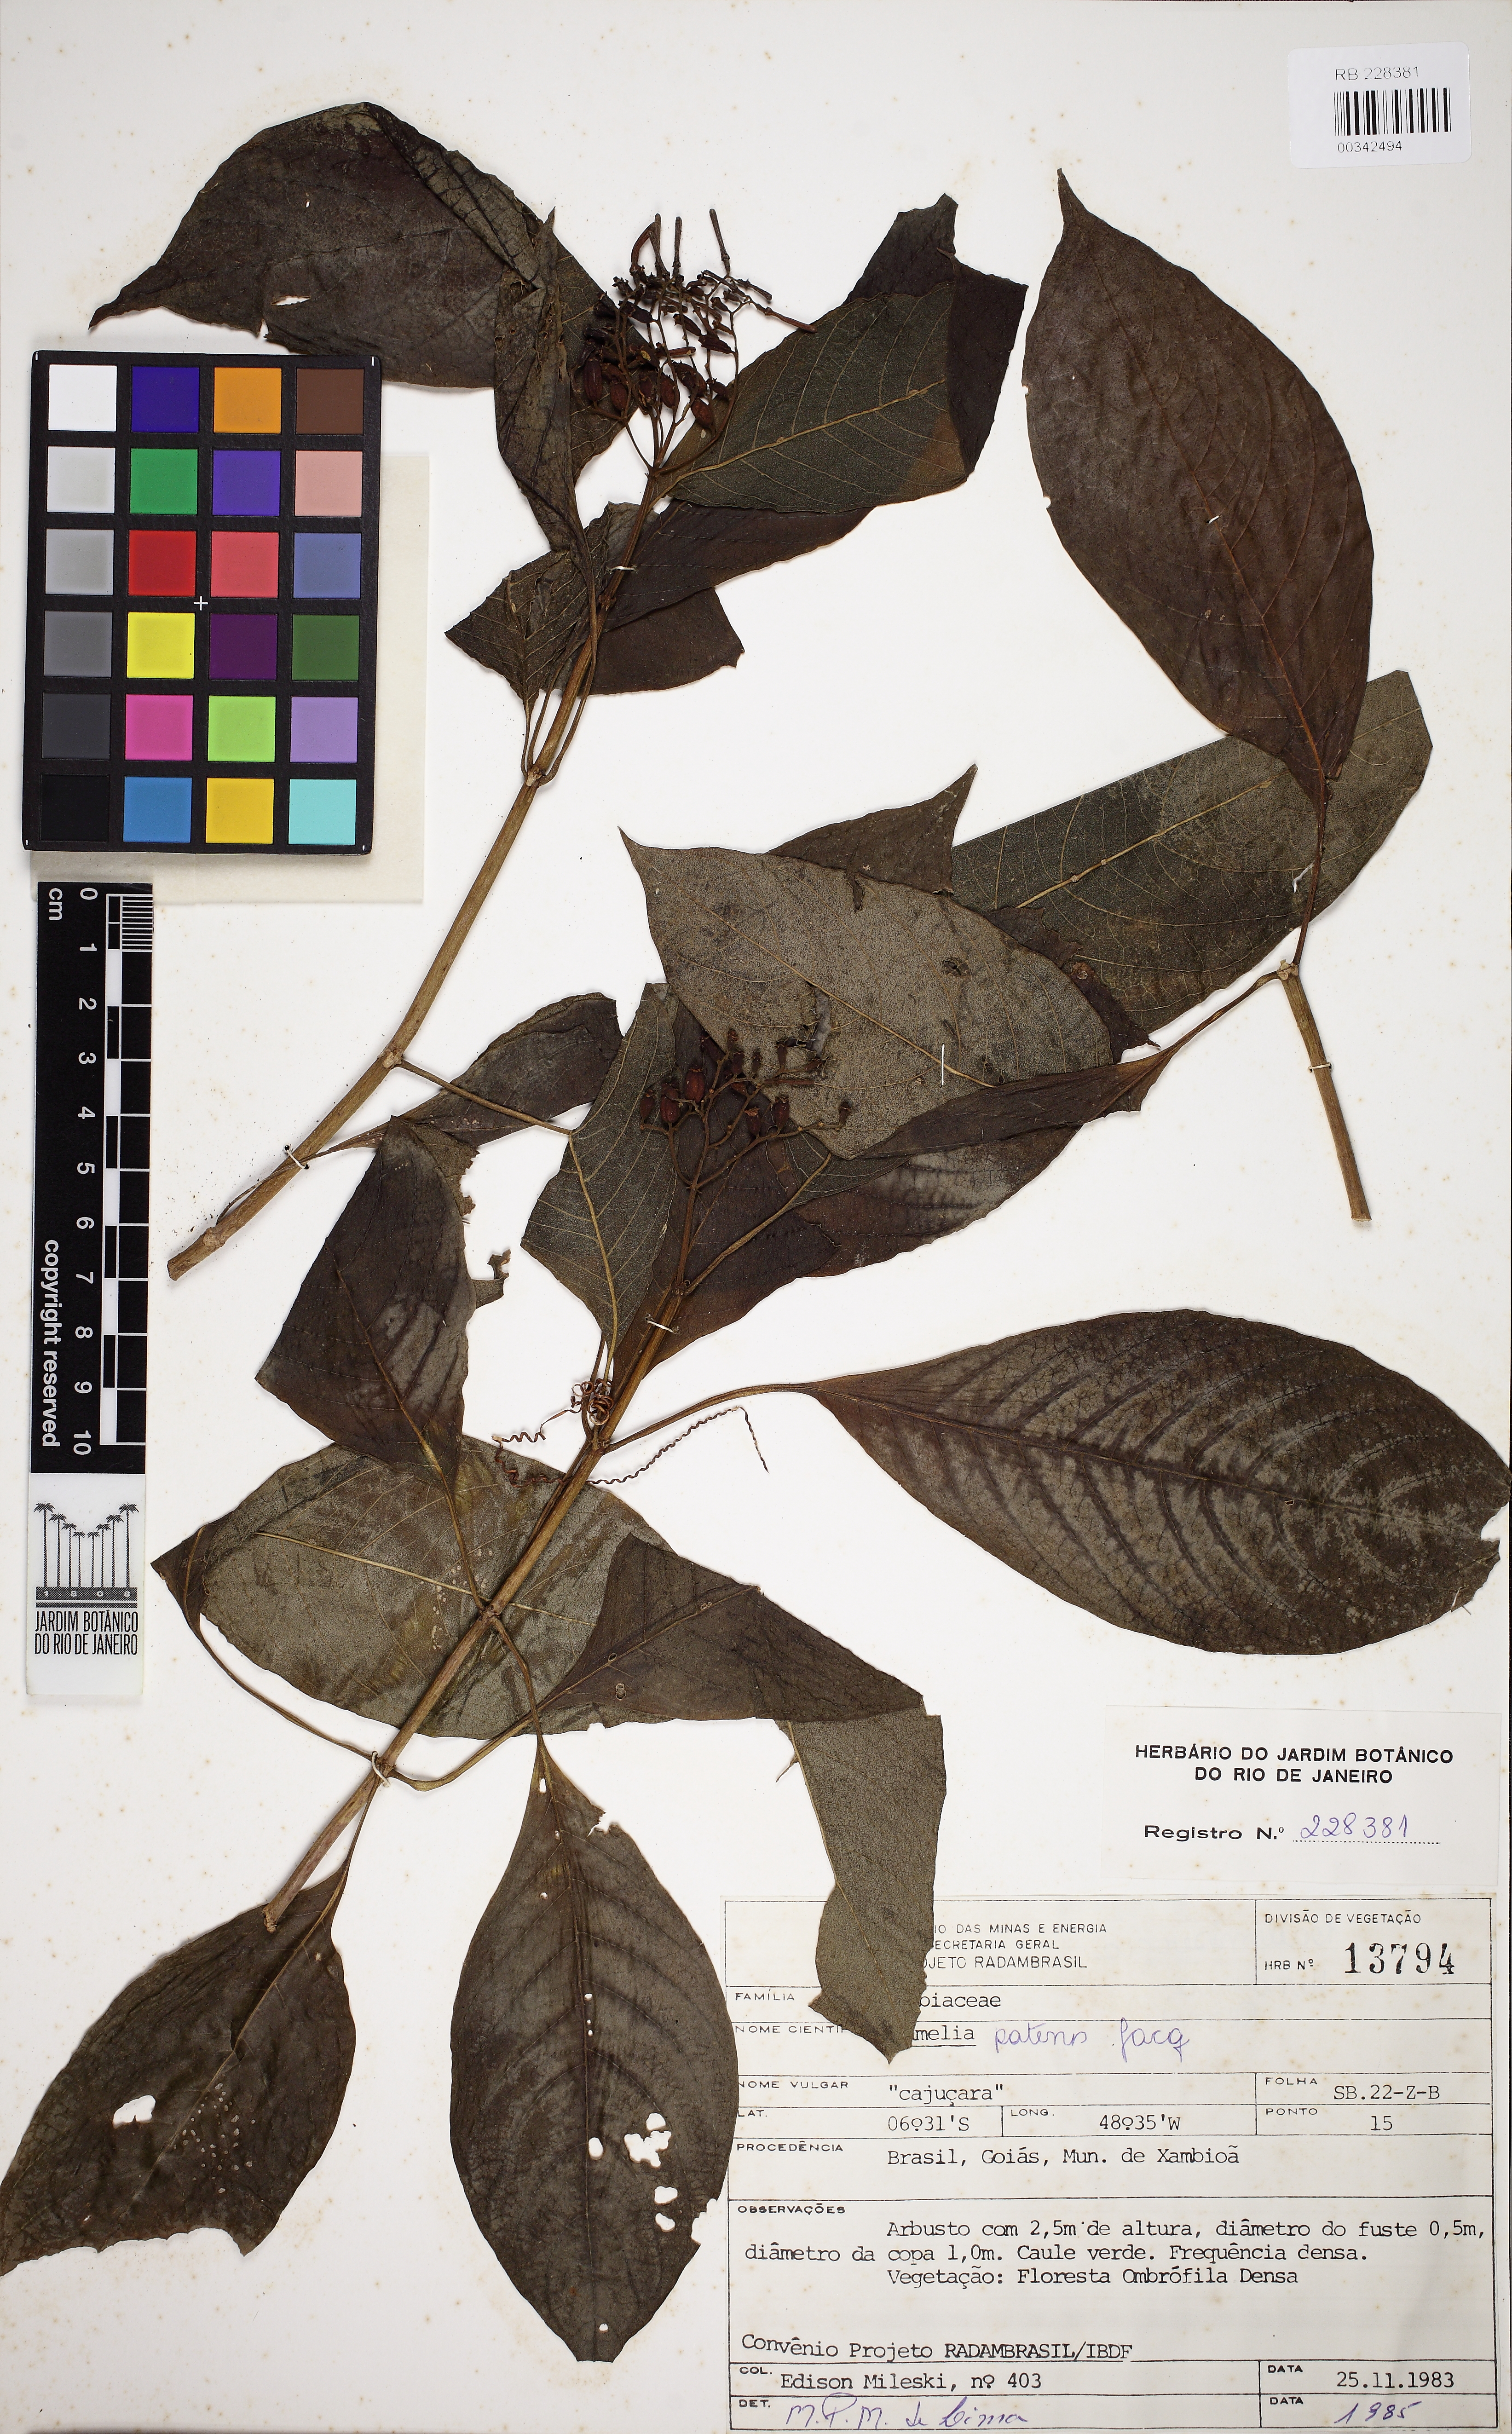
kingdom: Plantae
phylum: Tracheophyta
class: Magnoliopsida
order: Gentianales
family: Rubiaceae
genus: Hamelia
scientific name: Hamelia patens
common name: Redhead
